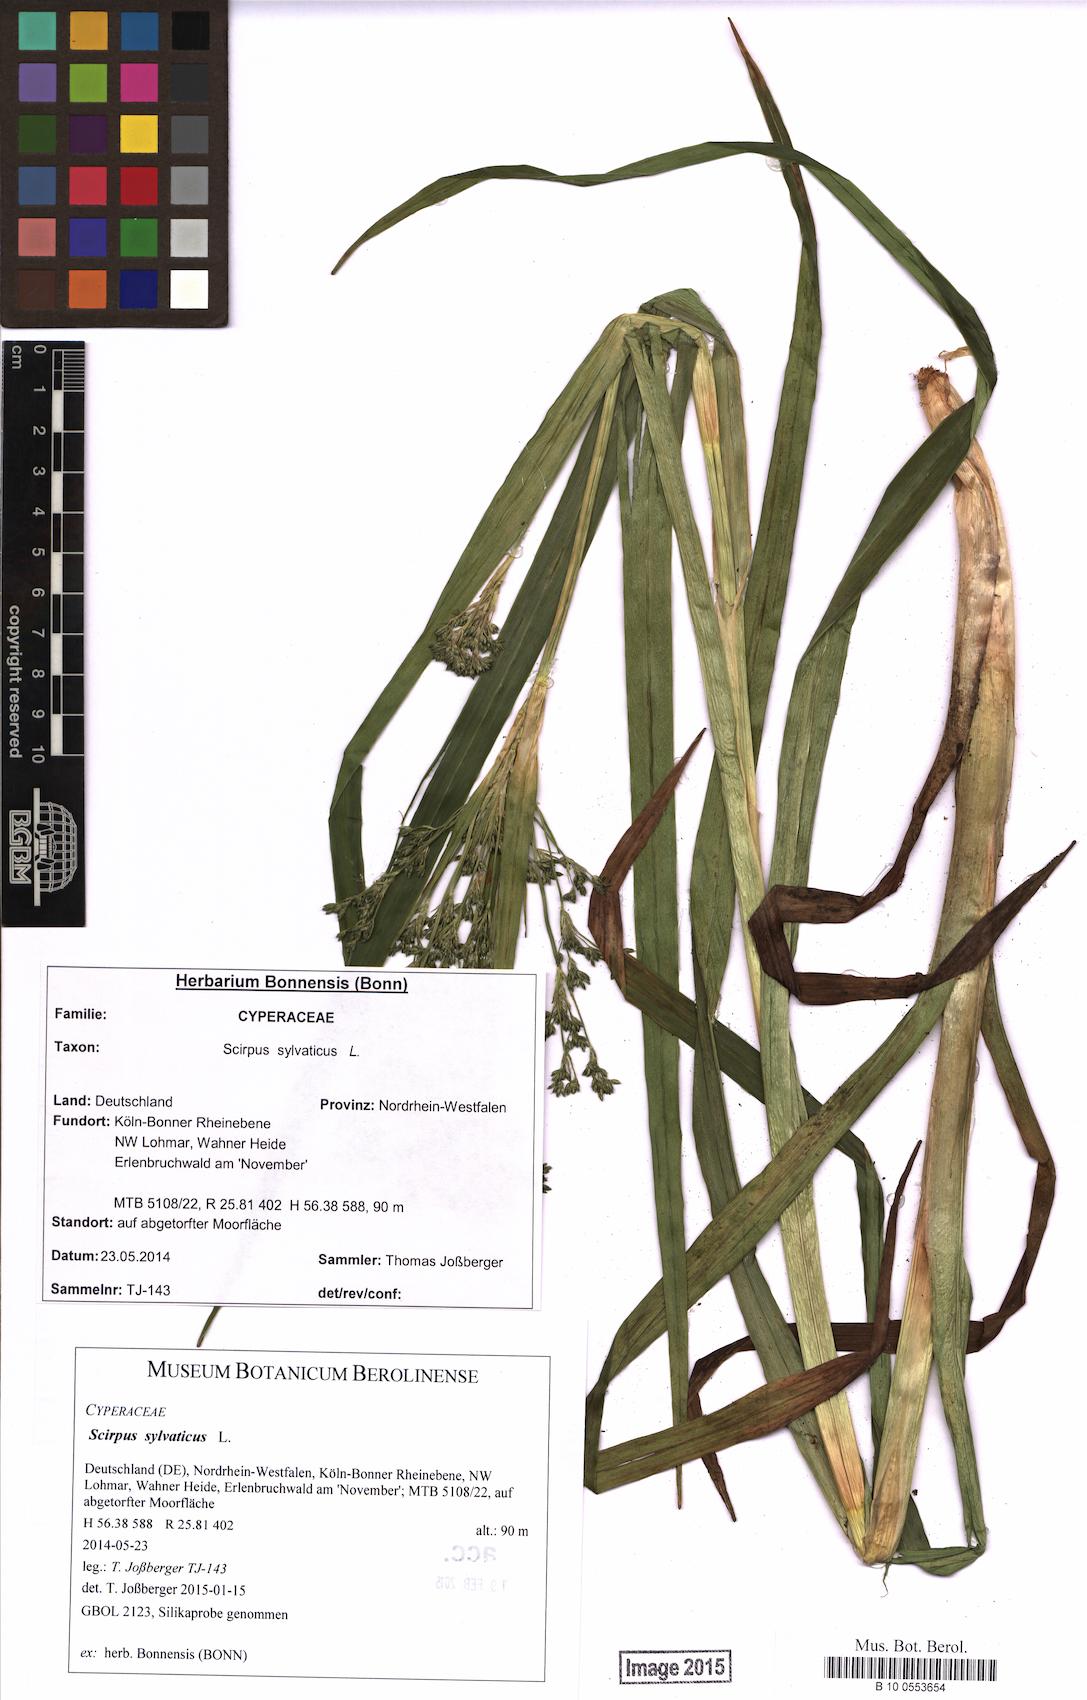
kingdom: Plantae
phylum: Tracheophyta
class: Liliopsida
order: Poales
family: Cyperaceae
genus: Scirpus
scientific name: Scirpus sylvaticus
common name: Wood club-rush
